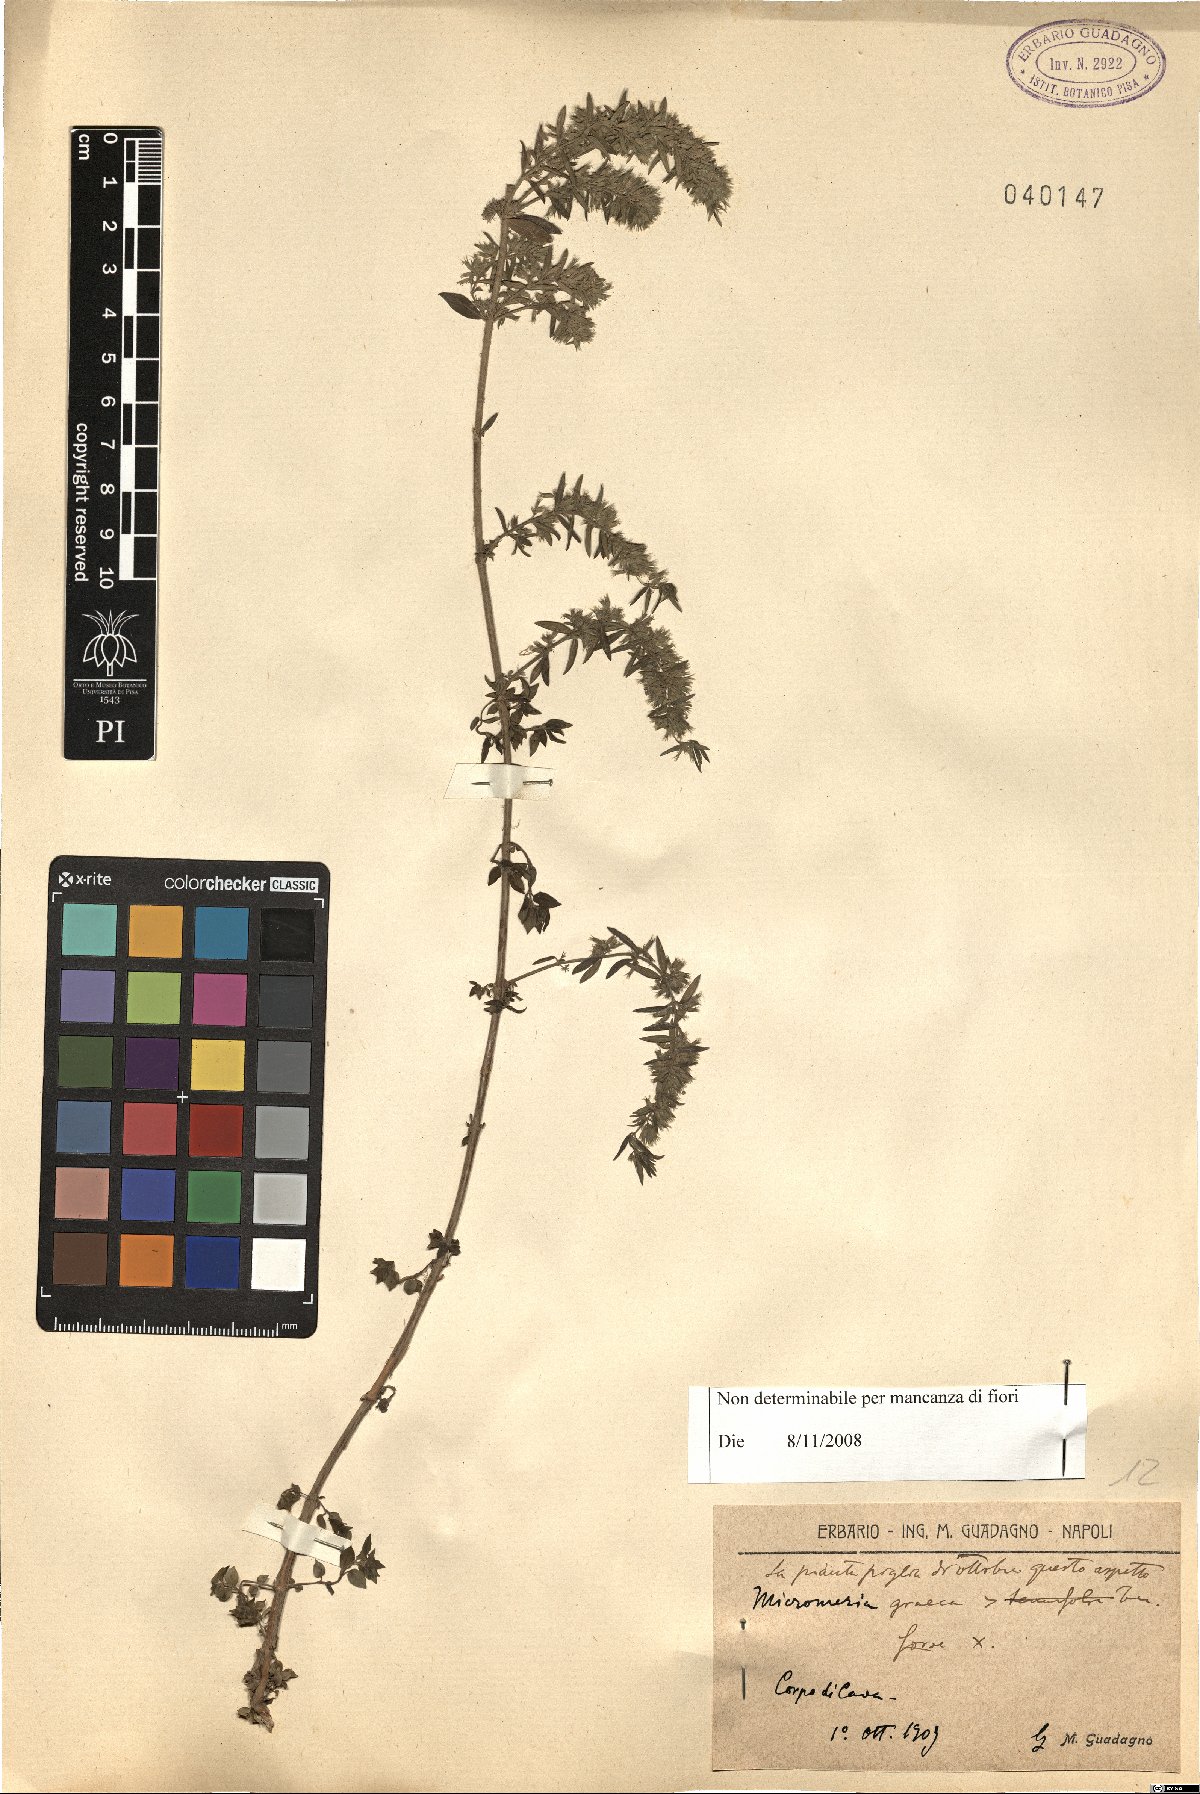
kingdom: Plantae
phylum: Tracheophyta
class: Magnoliopsida
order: Lamiales
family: Lamiaceae
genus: Micromeria
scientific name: Micromeria graeca
